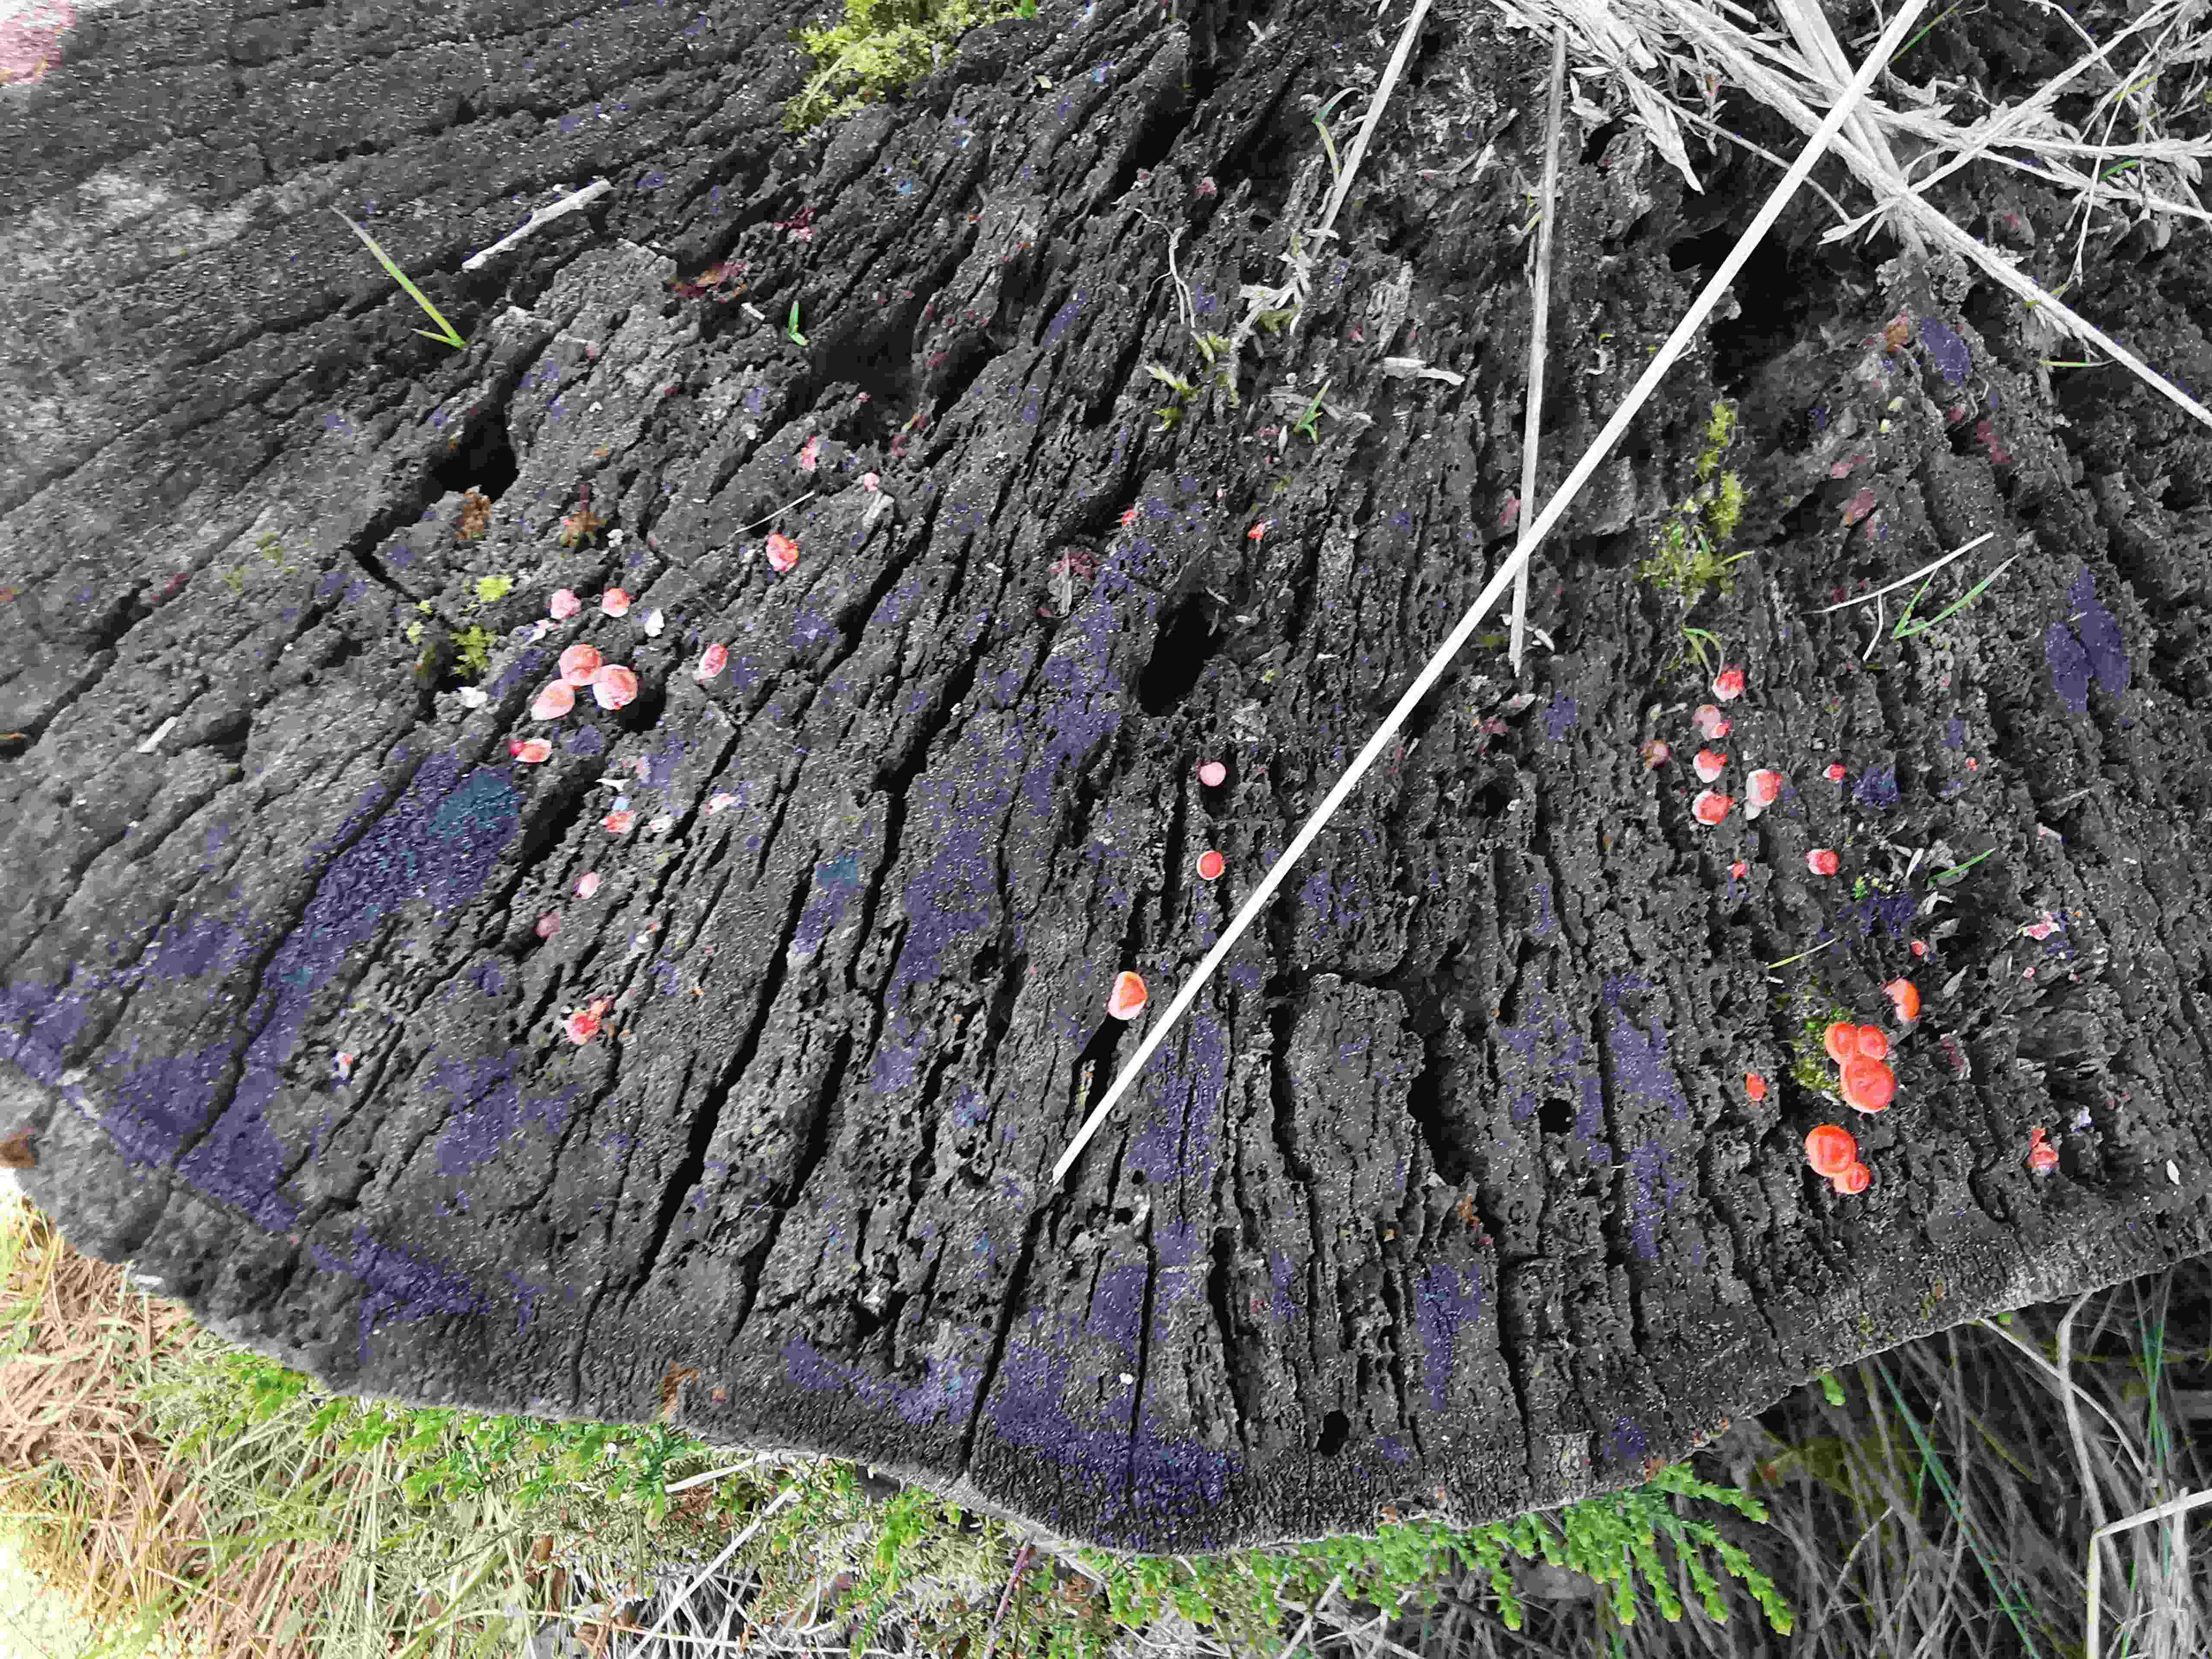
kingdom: Protozoa
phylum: Mycetozoa
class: Myxomycetes
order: Cribrariales
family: Tubiferaceae
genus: Lycogala
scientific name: Lycogala epidendrum
